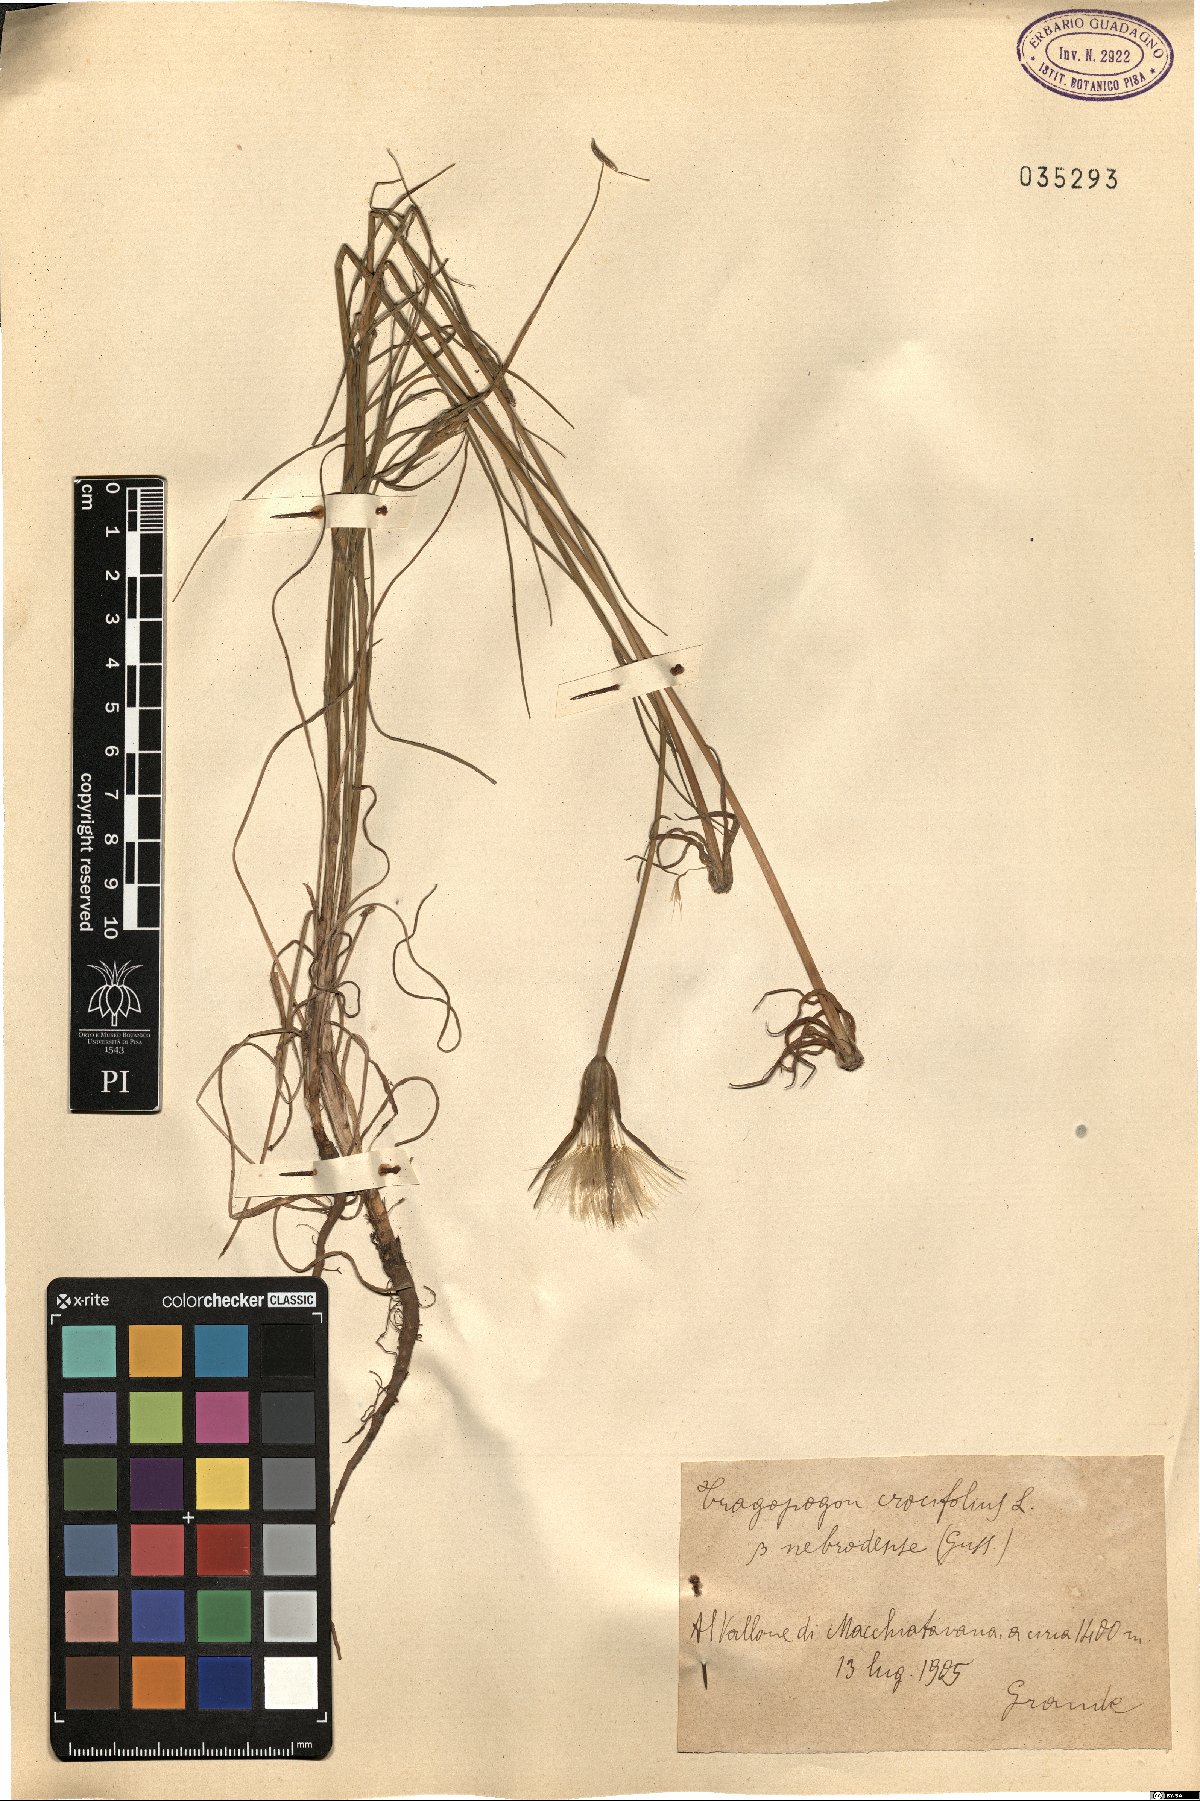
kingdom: Plantae
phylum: Tracheophyta
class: Magnoliopsida
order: Asterales
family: Asteraceae
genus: Tragopogon
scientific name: Tragopogon crocifolius
